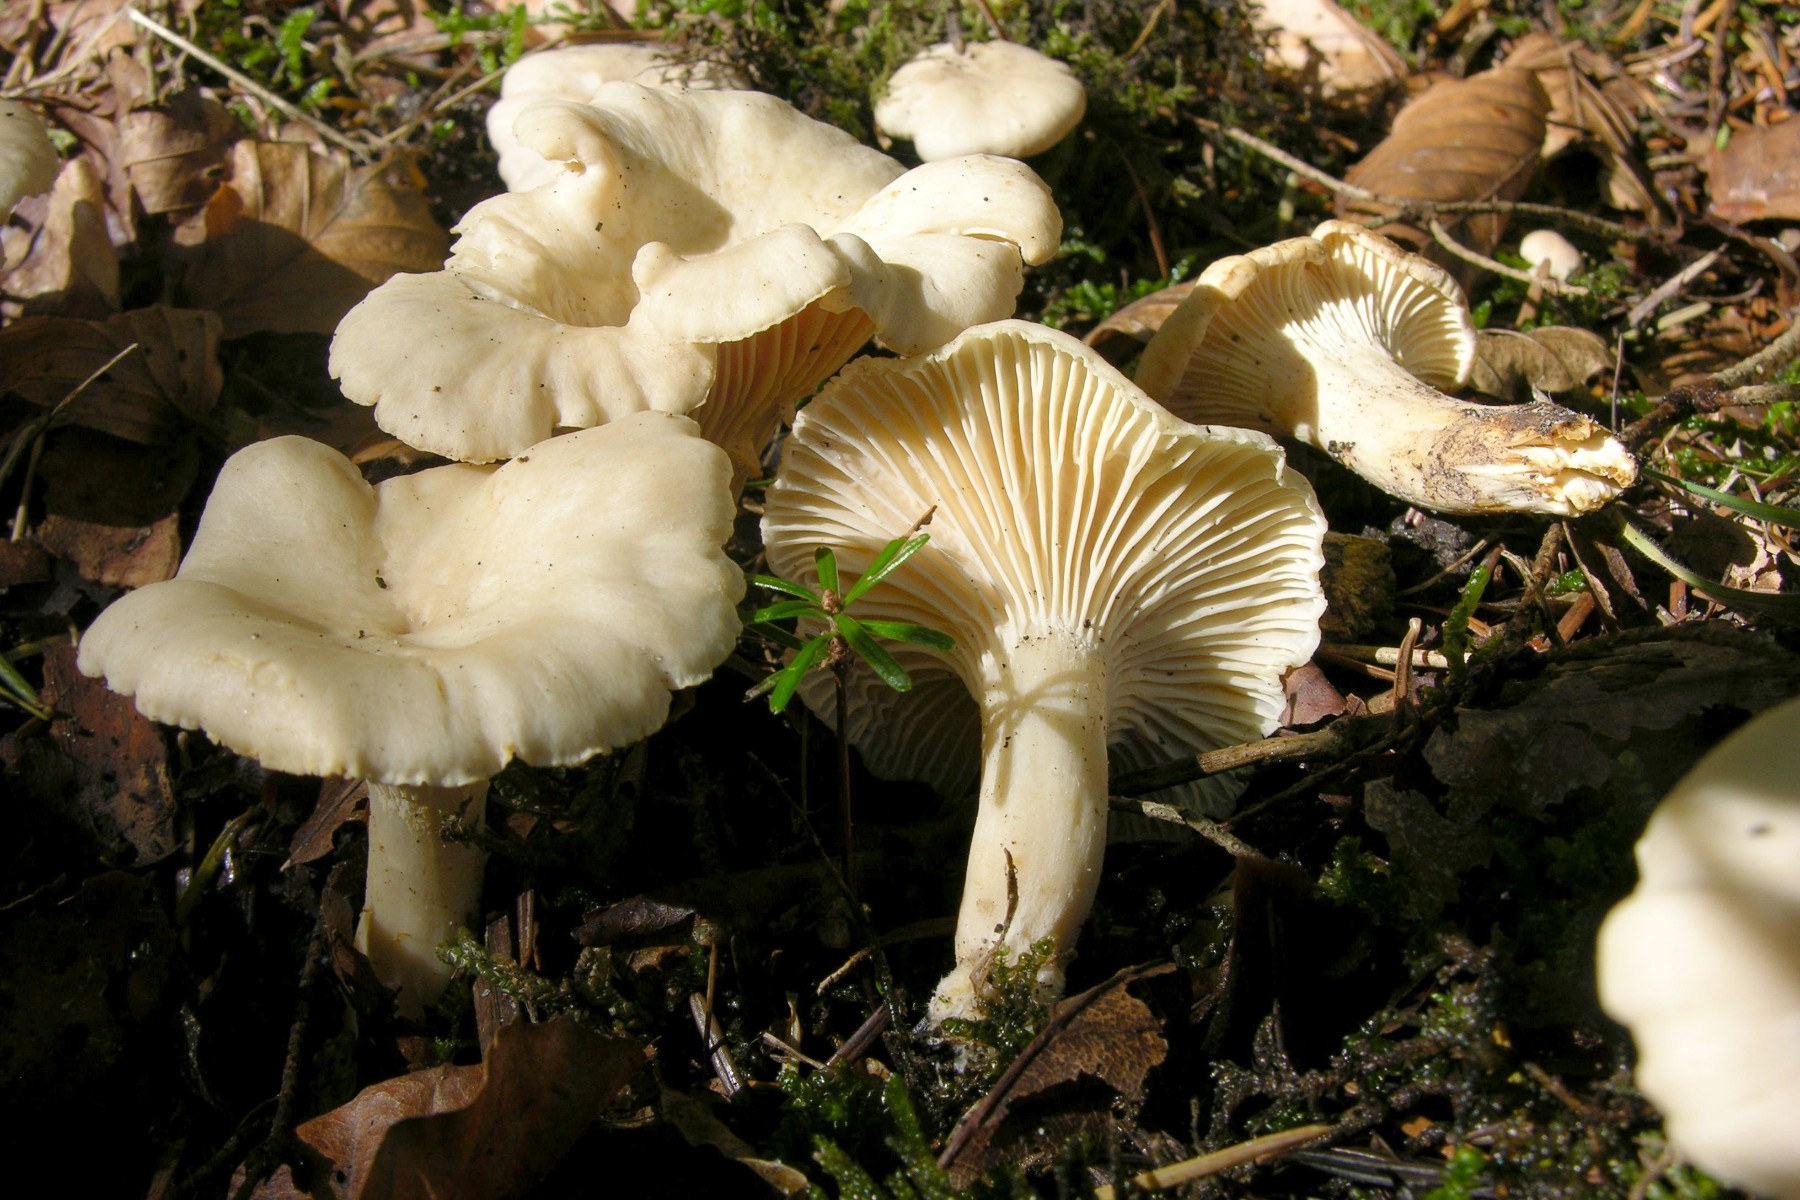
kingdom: Fungi
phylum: Basidiomycota
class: Agaricomycetes
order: Cantharellales
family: Hydnaceae
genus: Cantharellus
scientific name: Cantharellus pallens
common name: bleg kantarel
